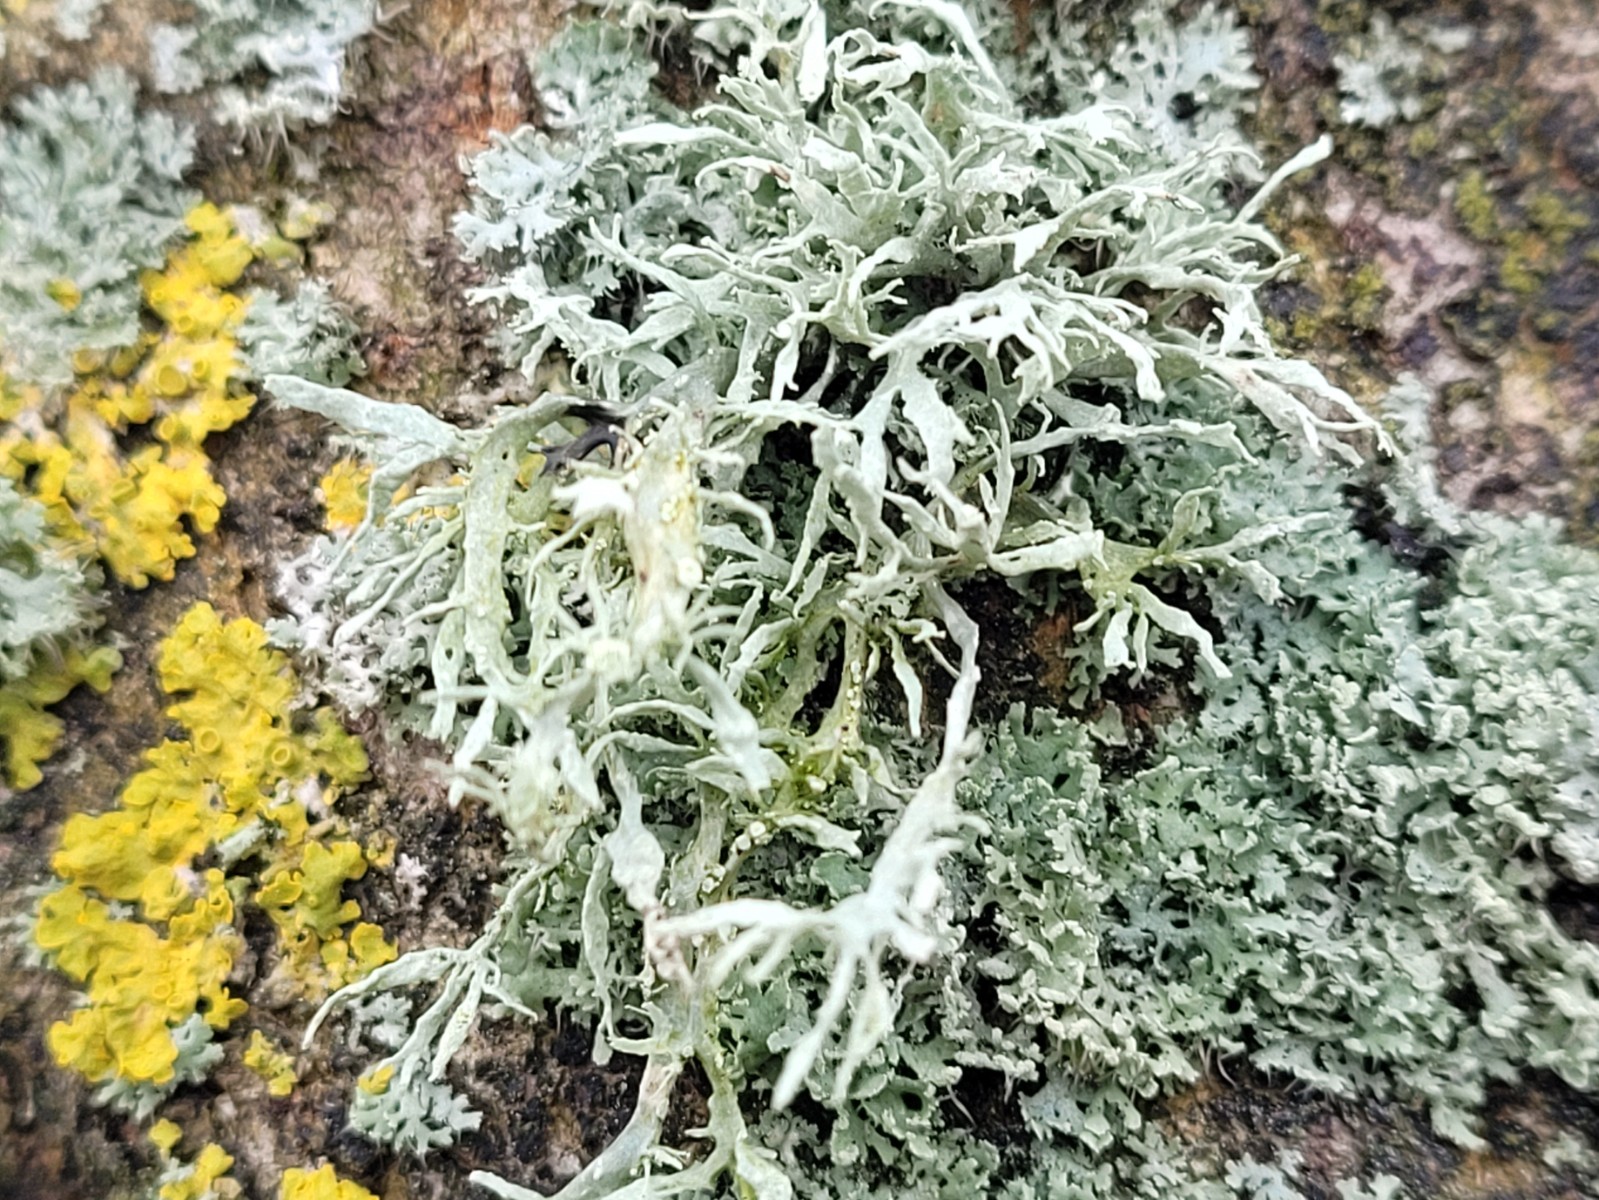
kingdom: Fungi
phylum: Ascomycota
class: Lecanoromycetes
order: Lecanorales
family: Ramalinaceae
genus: Ramalina
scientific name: Ramalina farinacea
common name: melet grenlav
